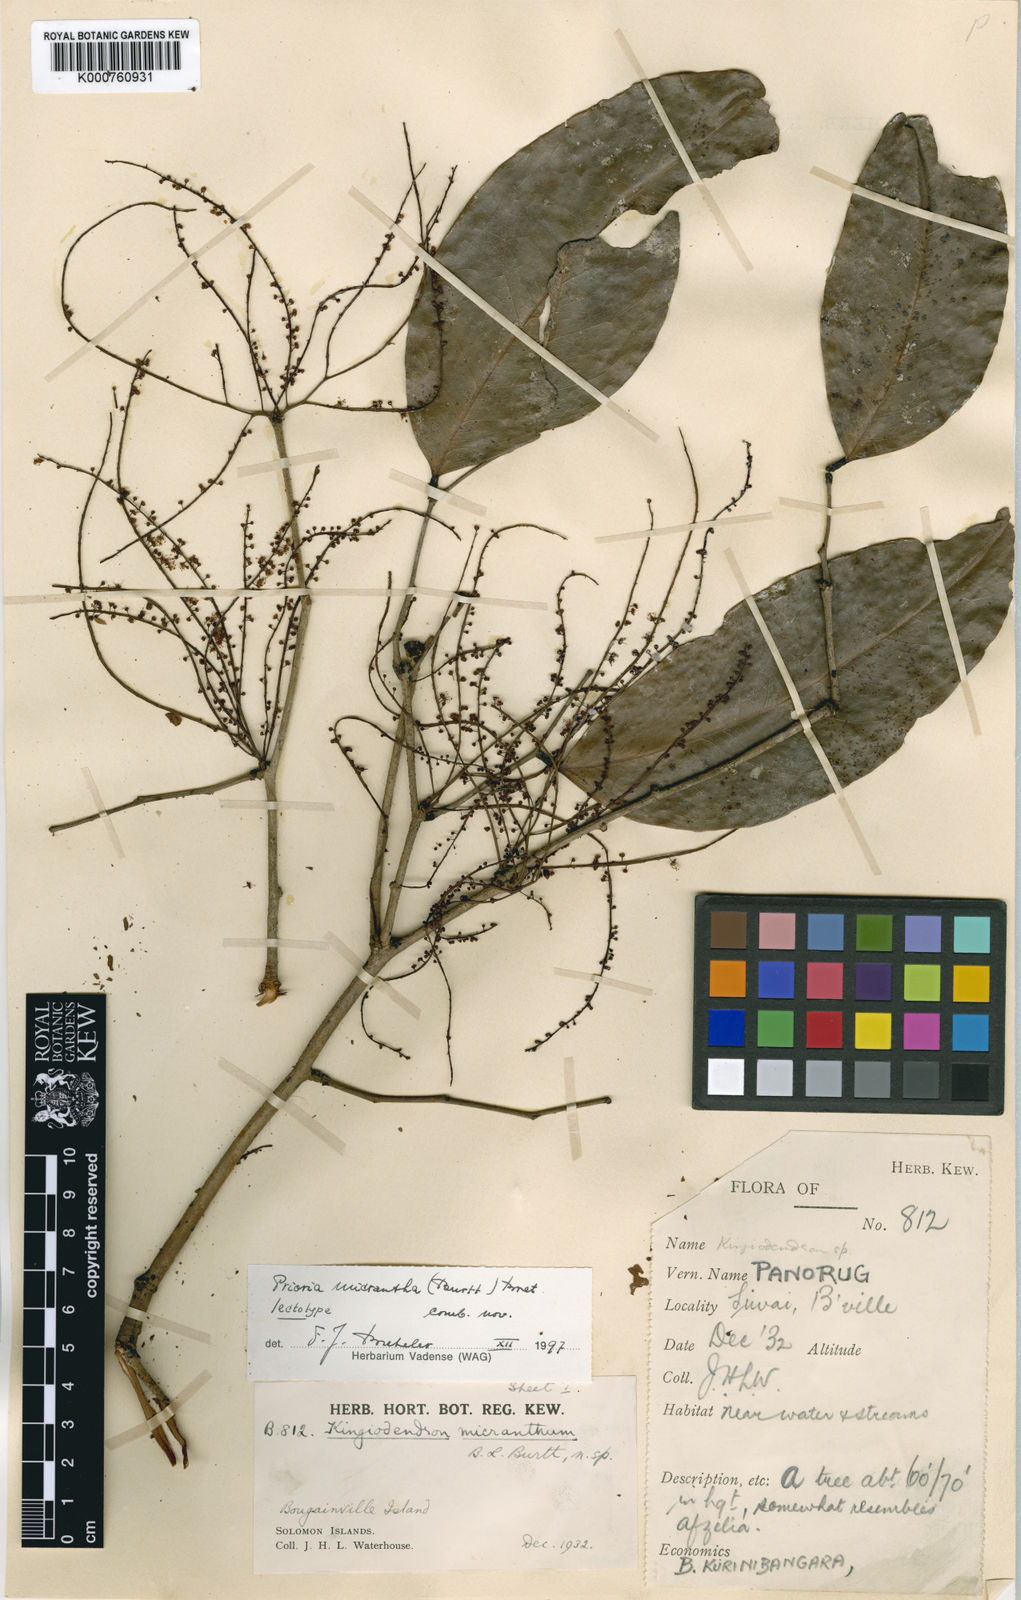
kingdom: Plantae
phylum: Tracheophyta
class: Magnoliopsida
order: Fabales
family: Fabaceae
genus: Prioria
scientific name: Prioria alternifolia
